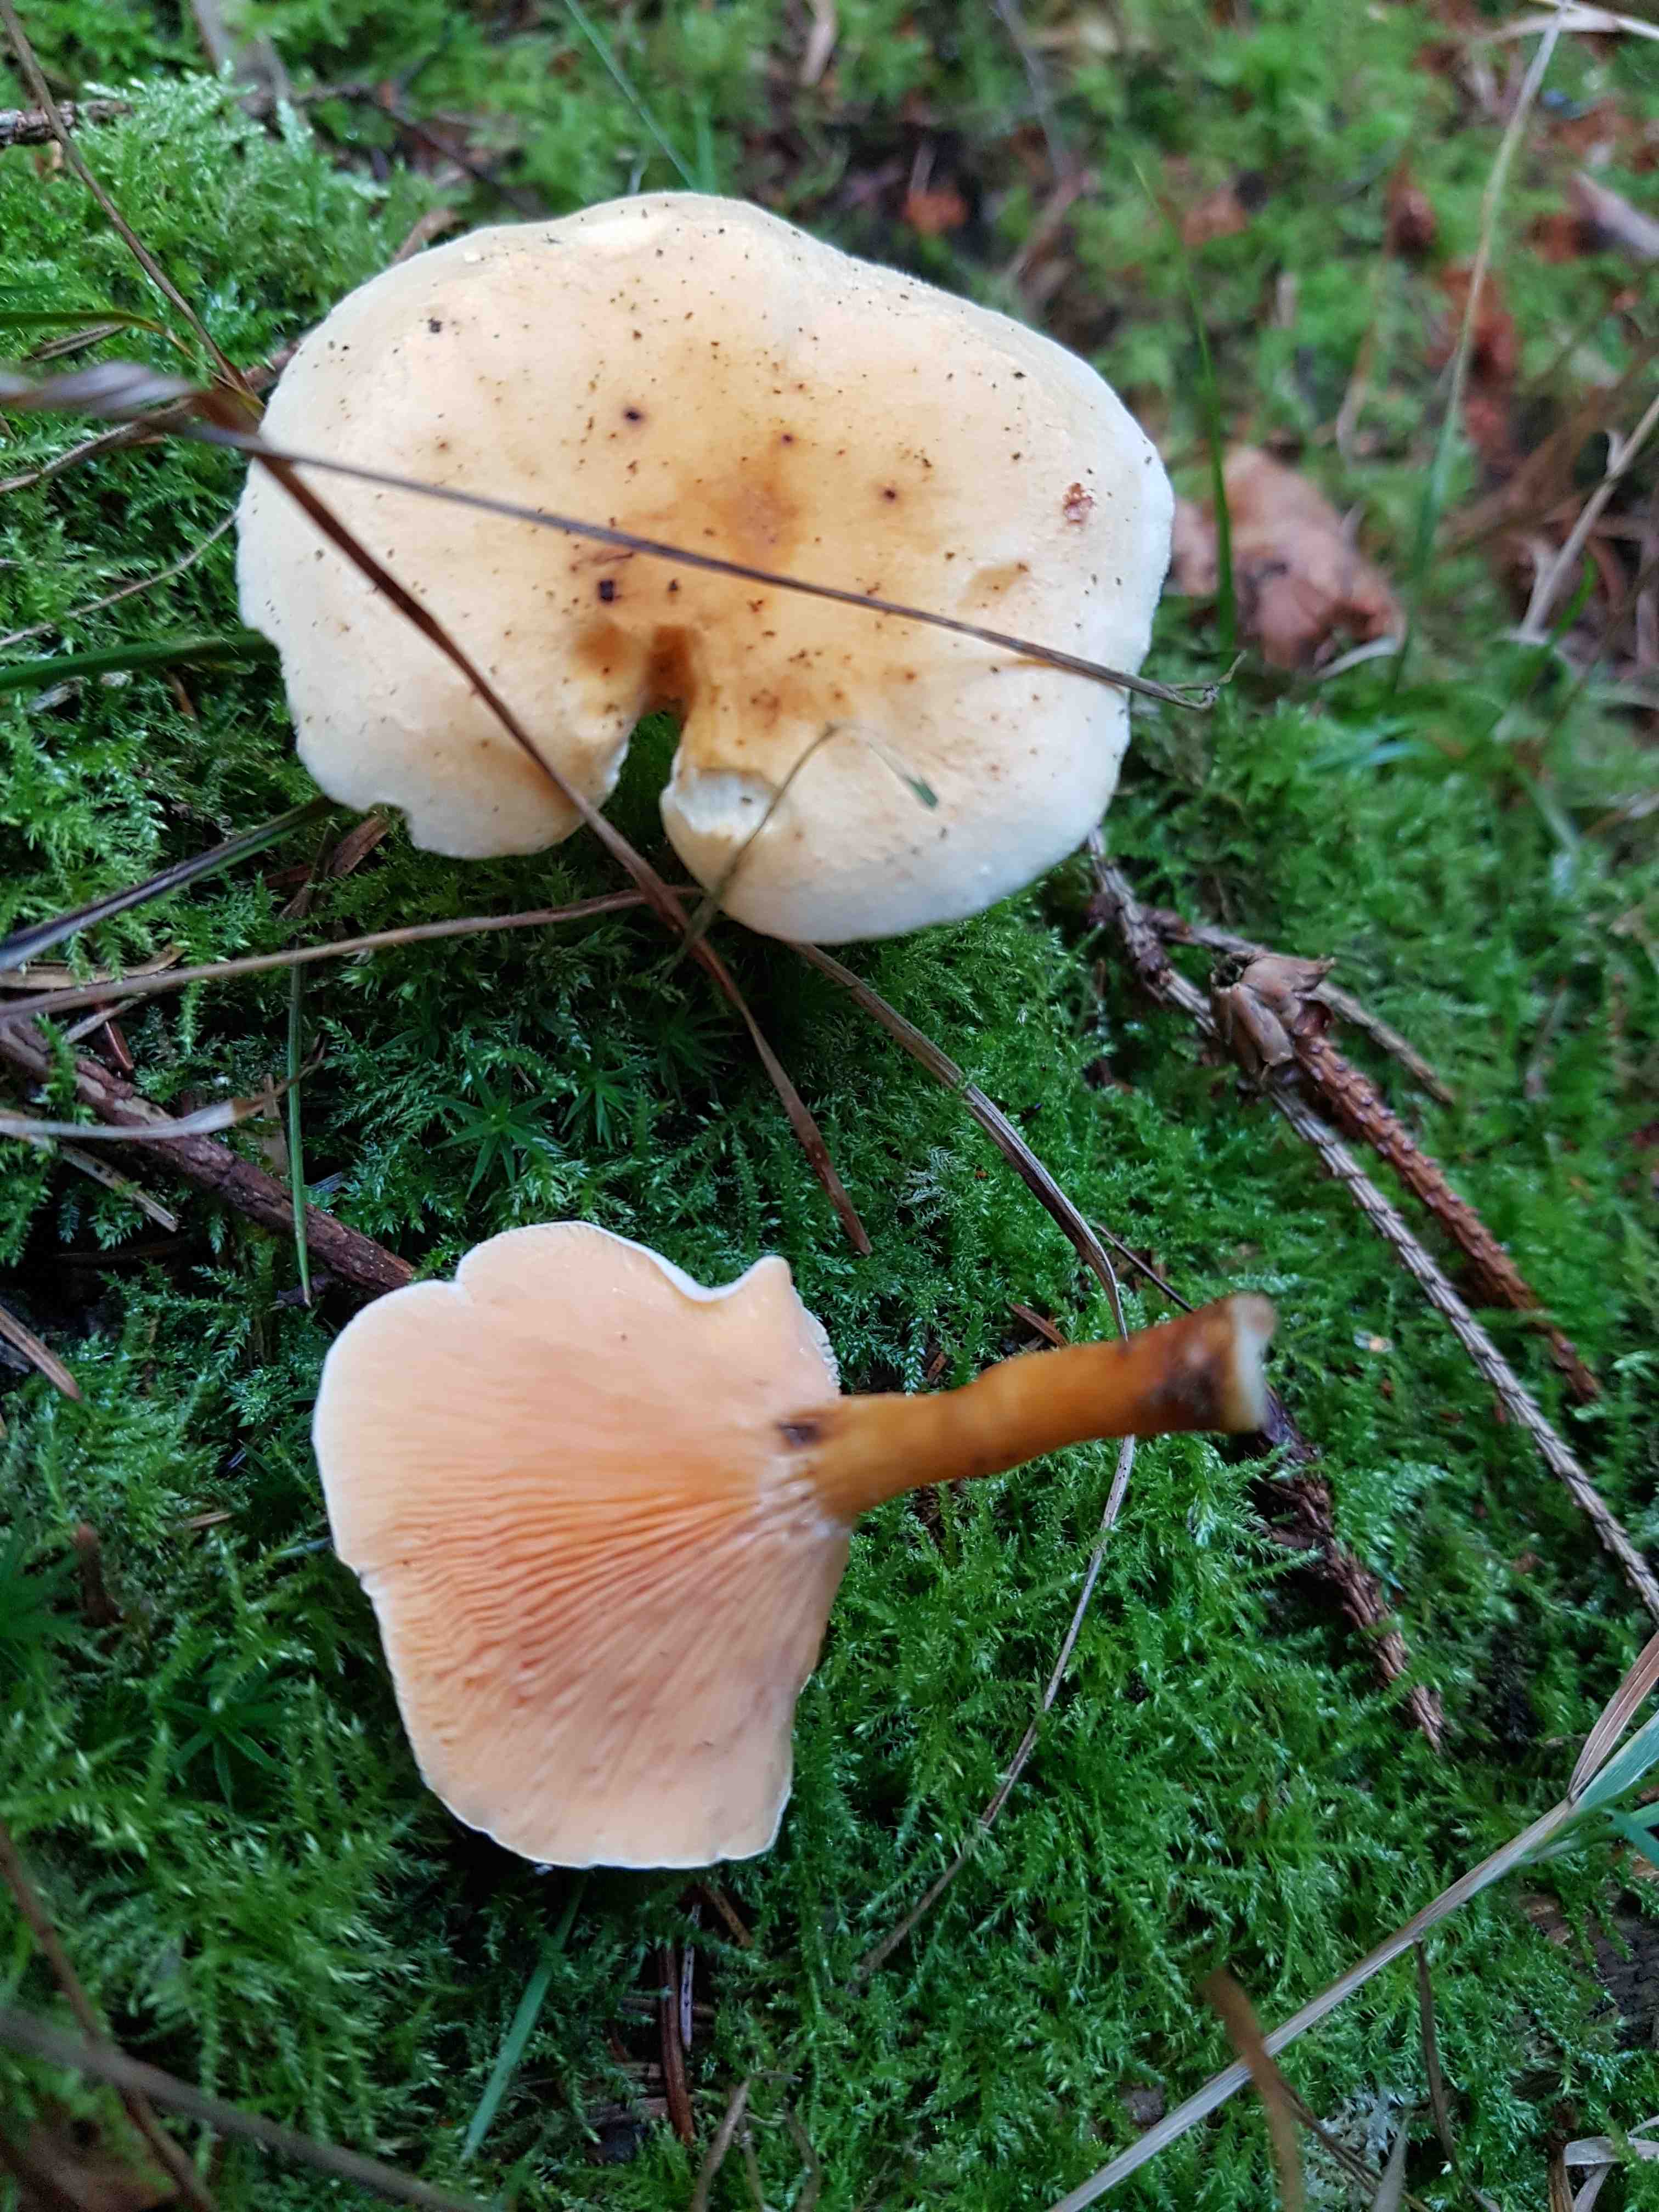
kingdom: Fungi
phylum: Basidiomycota
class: Agaricomycetes
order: Boletales
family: Hygrophoropsidaceae
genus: Hygrophoropsis
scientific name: Hygrophoropsis aurantiaca
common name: almindelig orangekantarel
